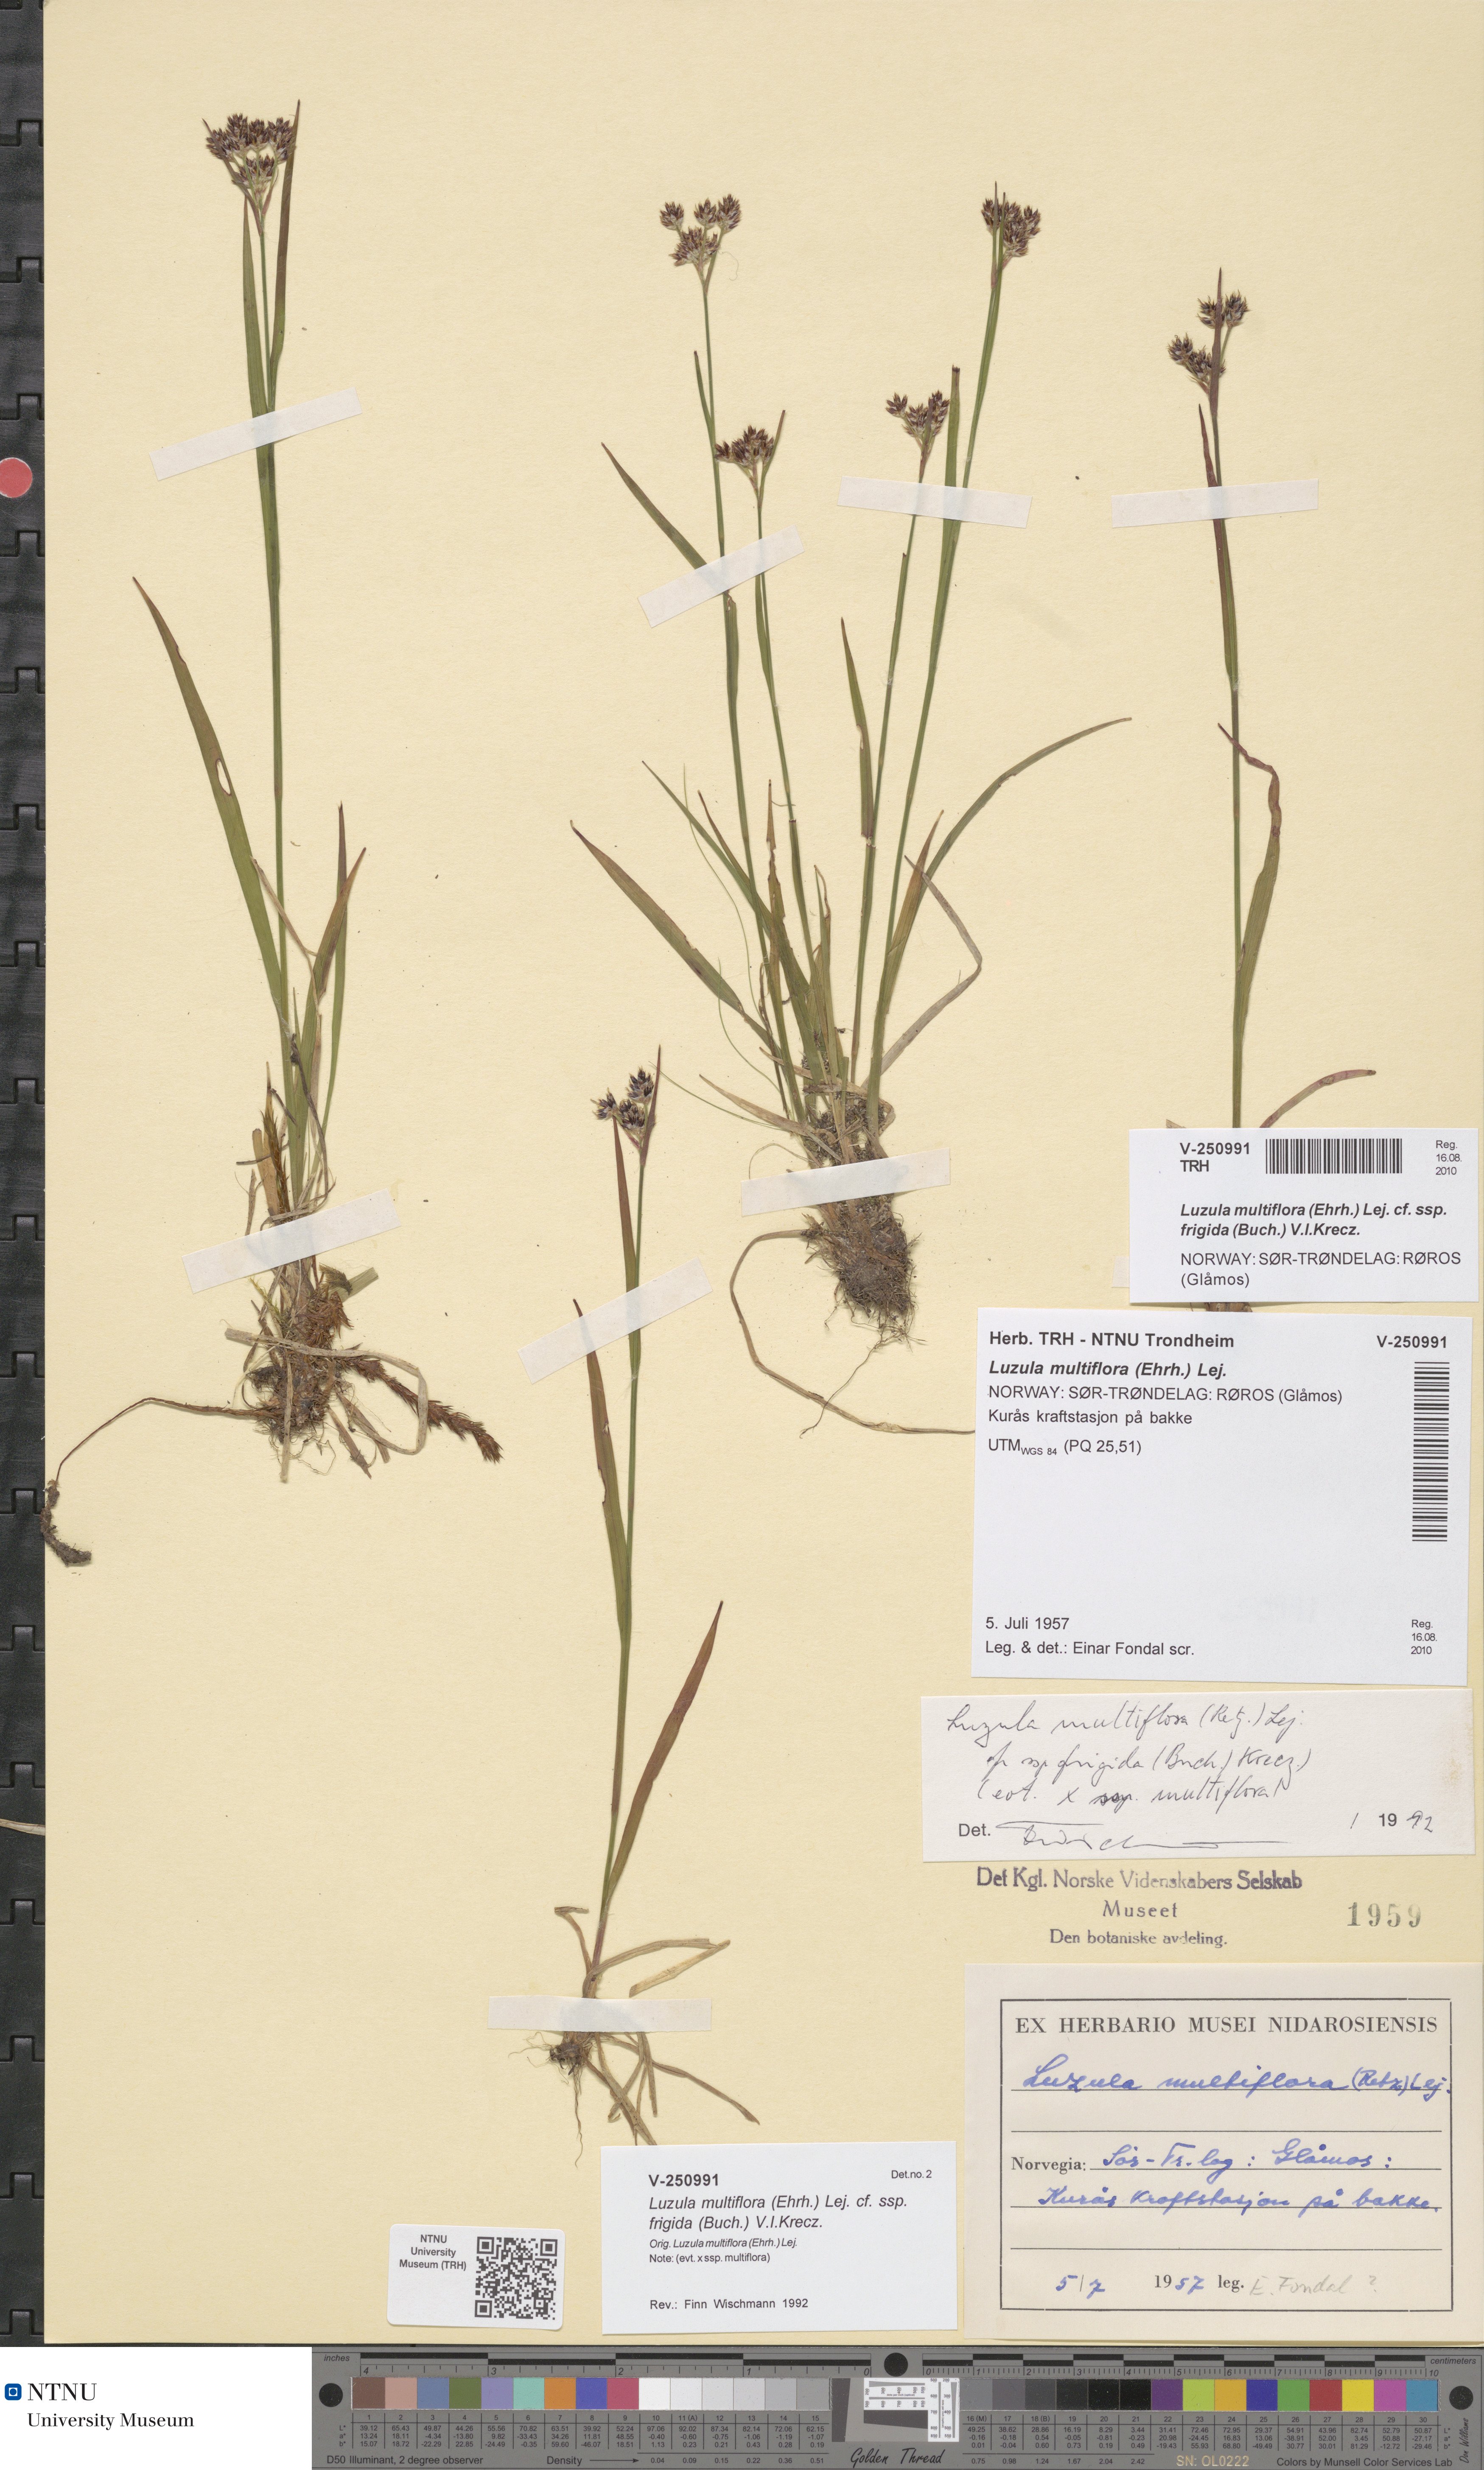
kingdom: Plantae
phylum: Tracheophyta
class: Liliopsida
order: Poales
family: Juncaceae
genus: Luzula
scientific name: Luzula multiflora
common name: Heath wood-rush
